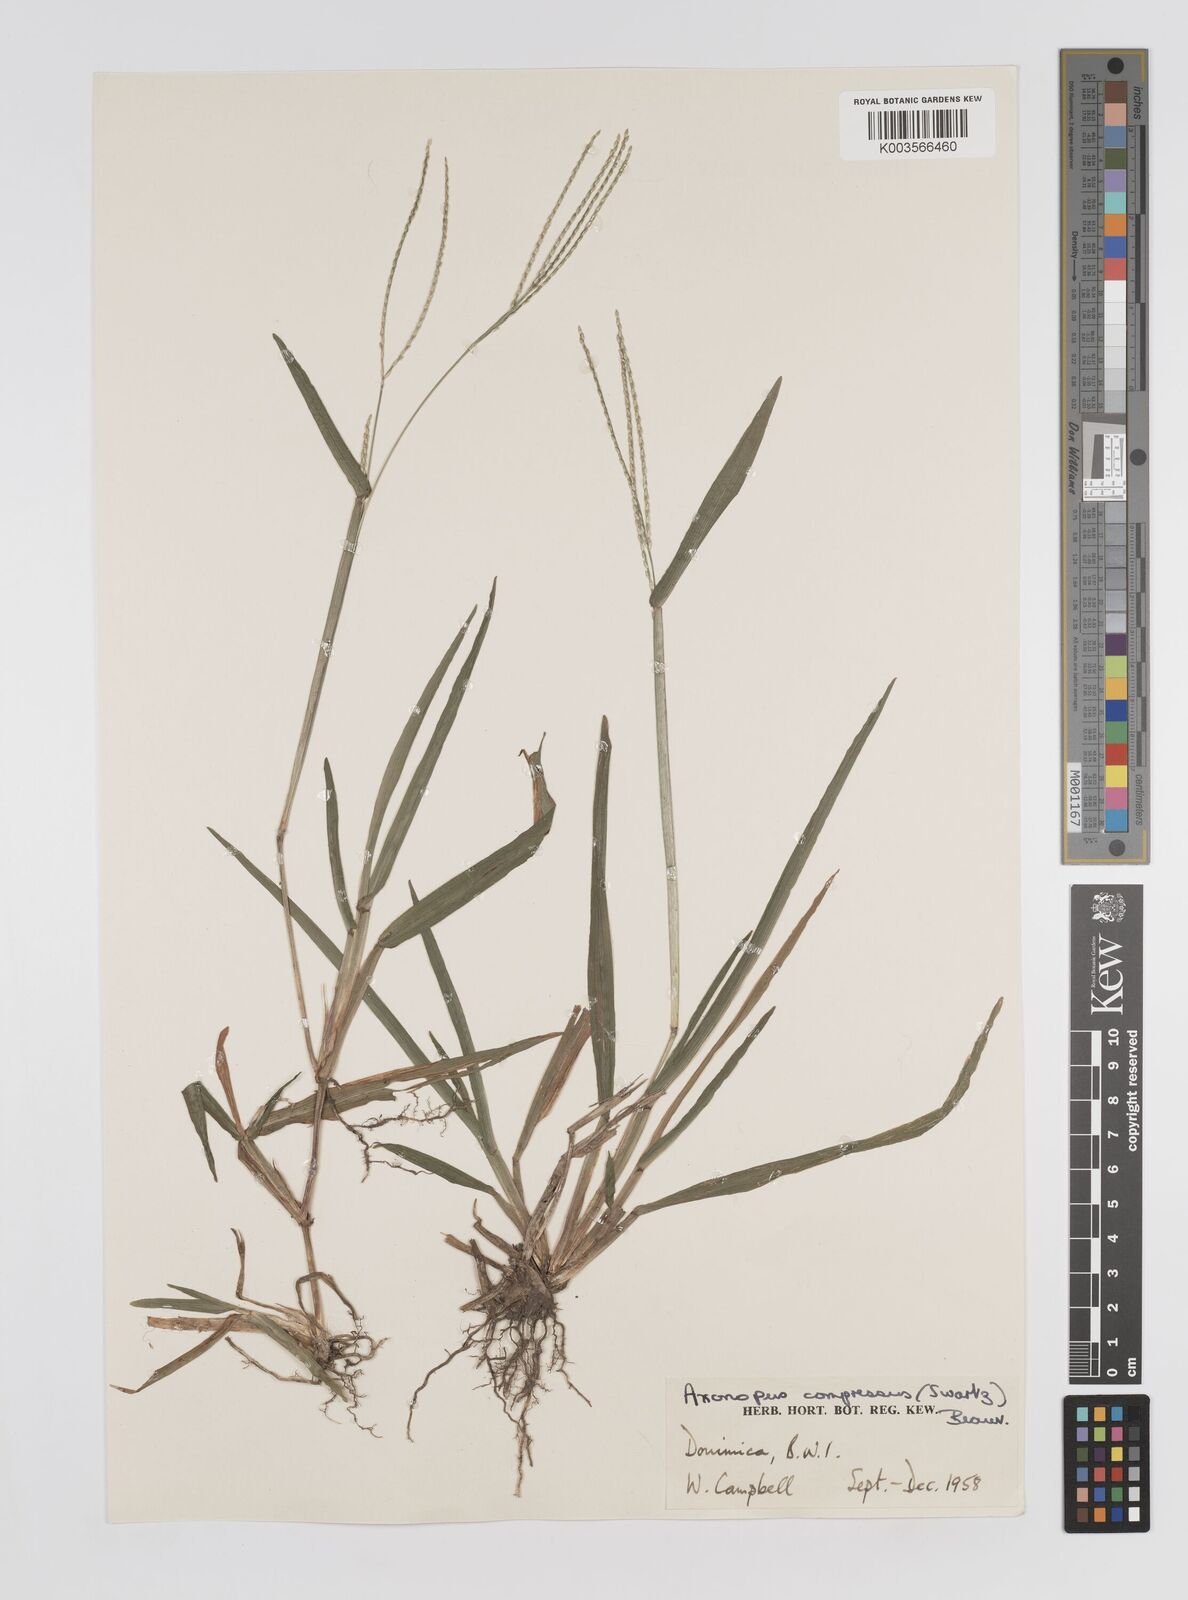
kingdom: Plantae
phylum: Tracheophyta
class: Liliopsida
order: Poales
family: Poaceae
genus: Axonopus
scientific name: Axonopus compressus
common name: American carpet grass
